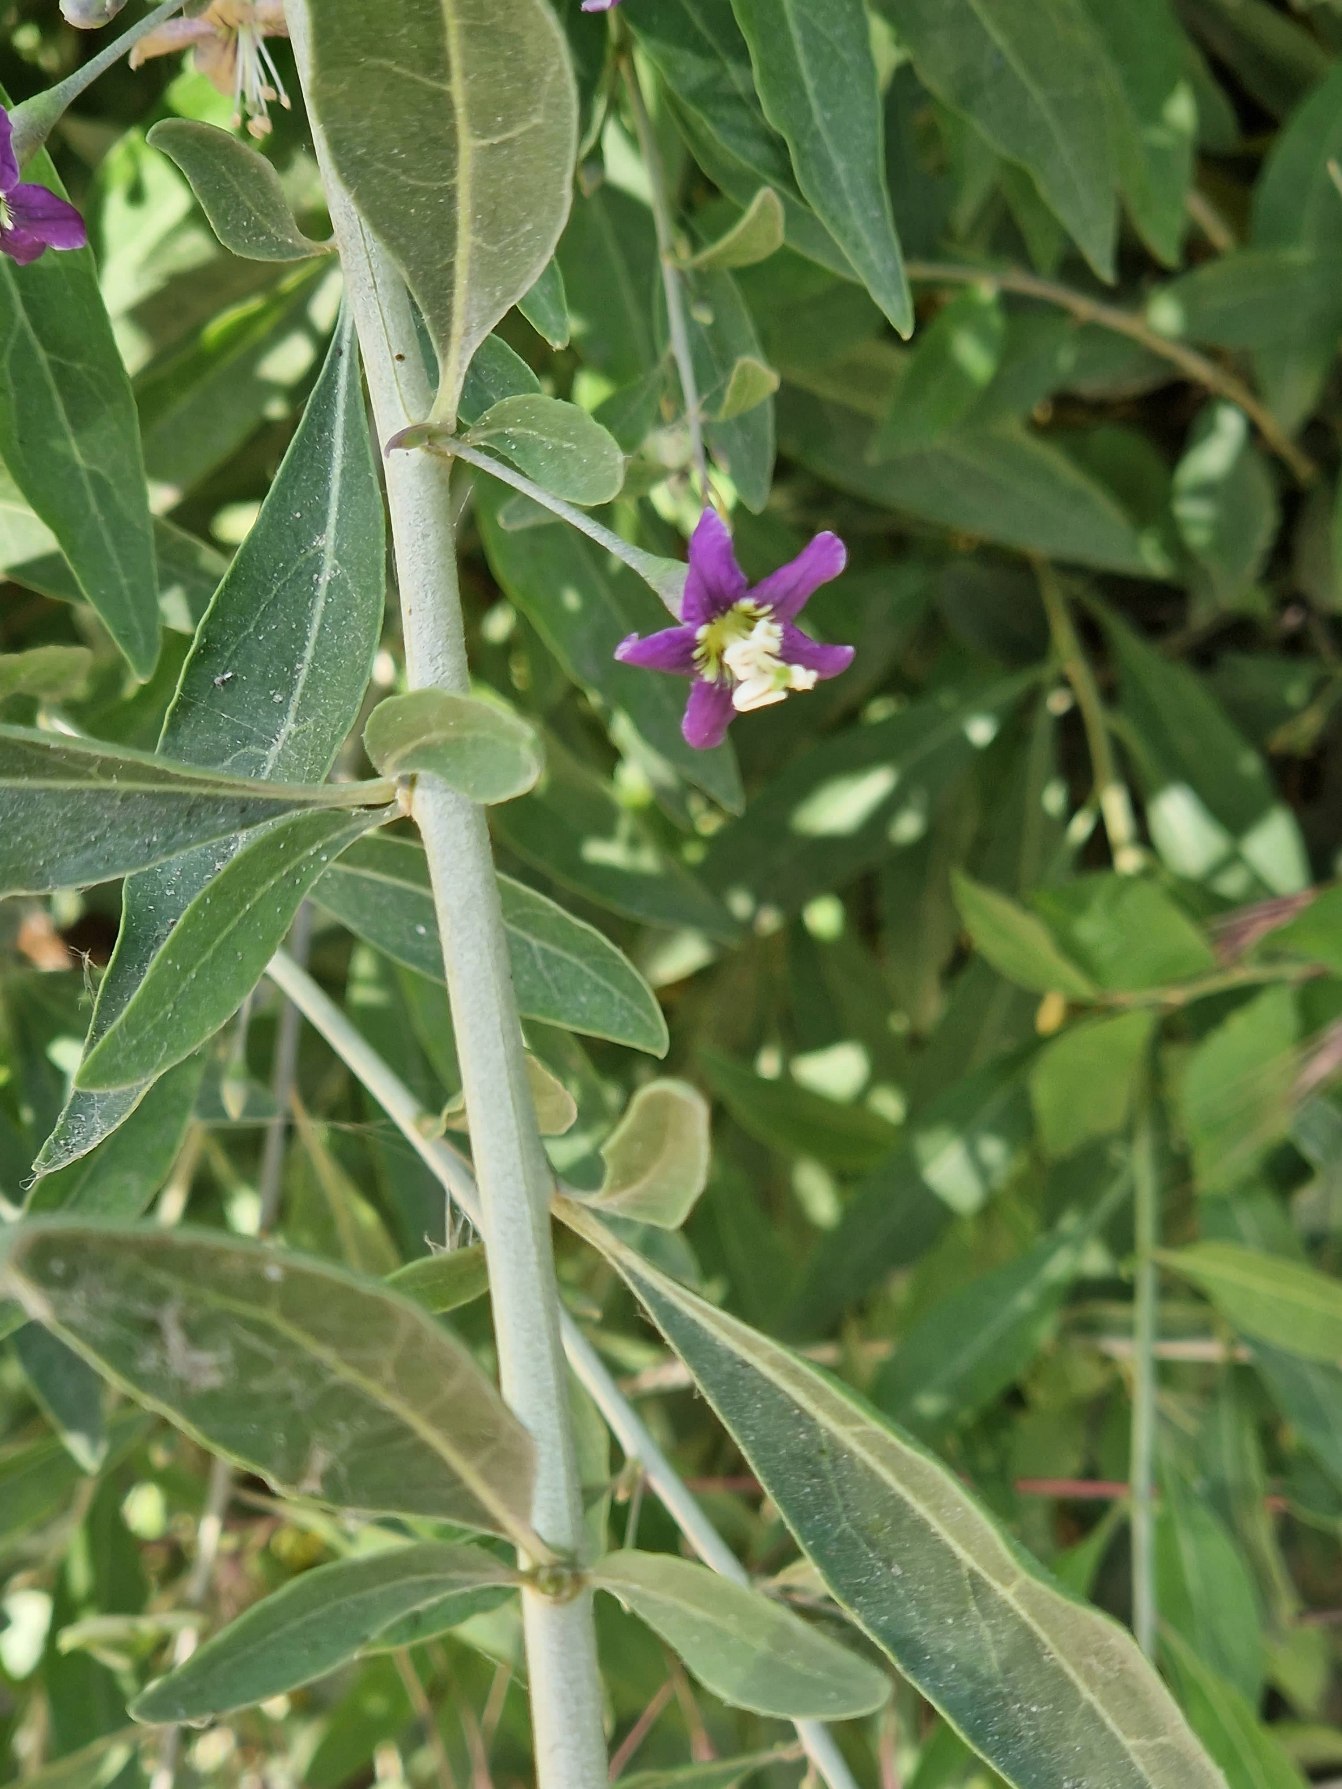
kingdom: Plantae
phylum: Tracheophyta
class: Magnoliopsida
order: Solanales
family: Solanaceae
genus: Lycium
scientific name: Lycium barbarum
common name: Bukketorn
